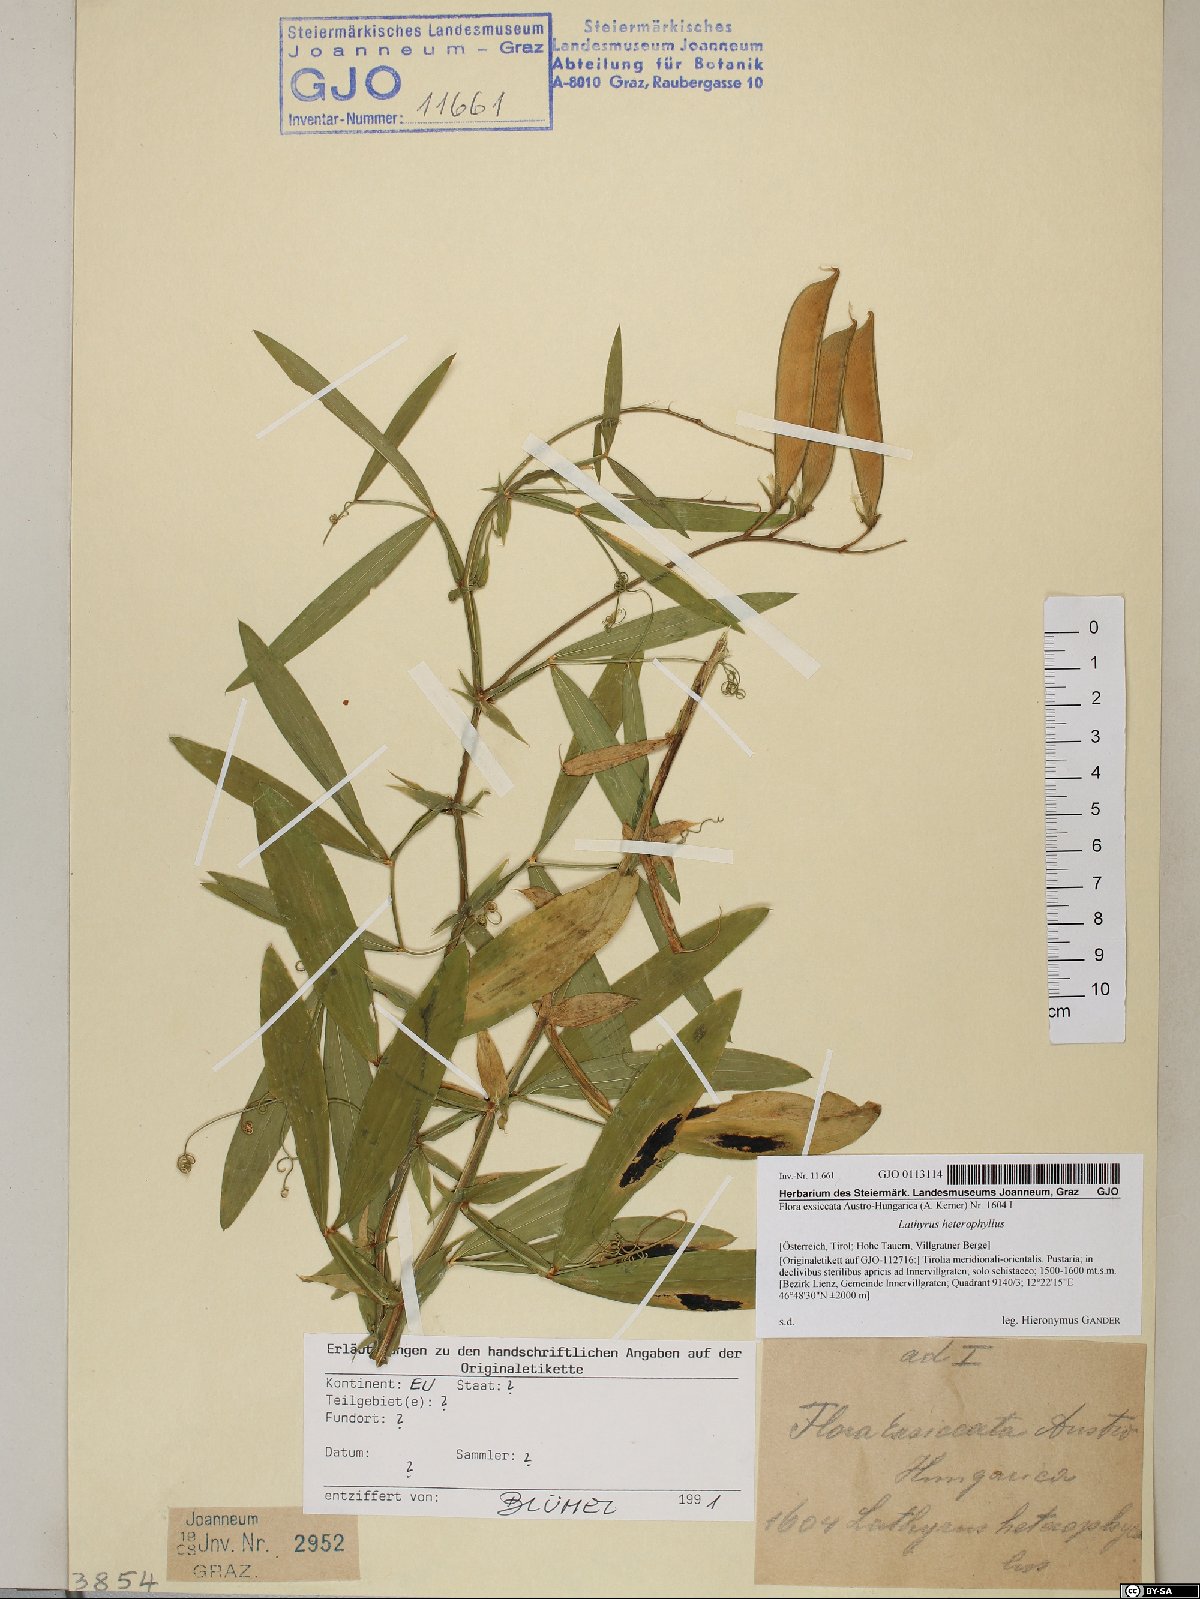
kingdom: Plantae
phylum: Tracheophyta
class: Magnoliopsida
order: Fabales
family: Fabaceae
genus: Lathyrus
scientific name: Lathyrus heterophyllus
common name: Norfolk everlasting-pea
